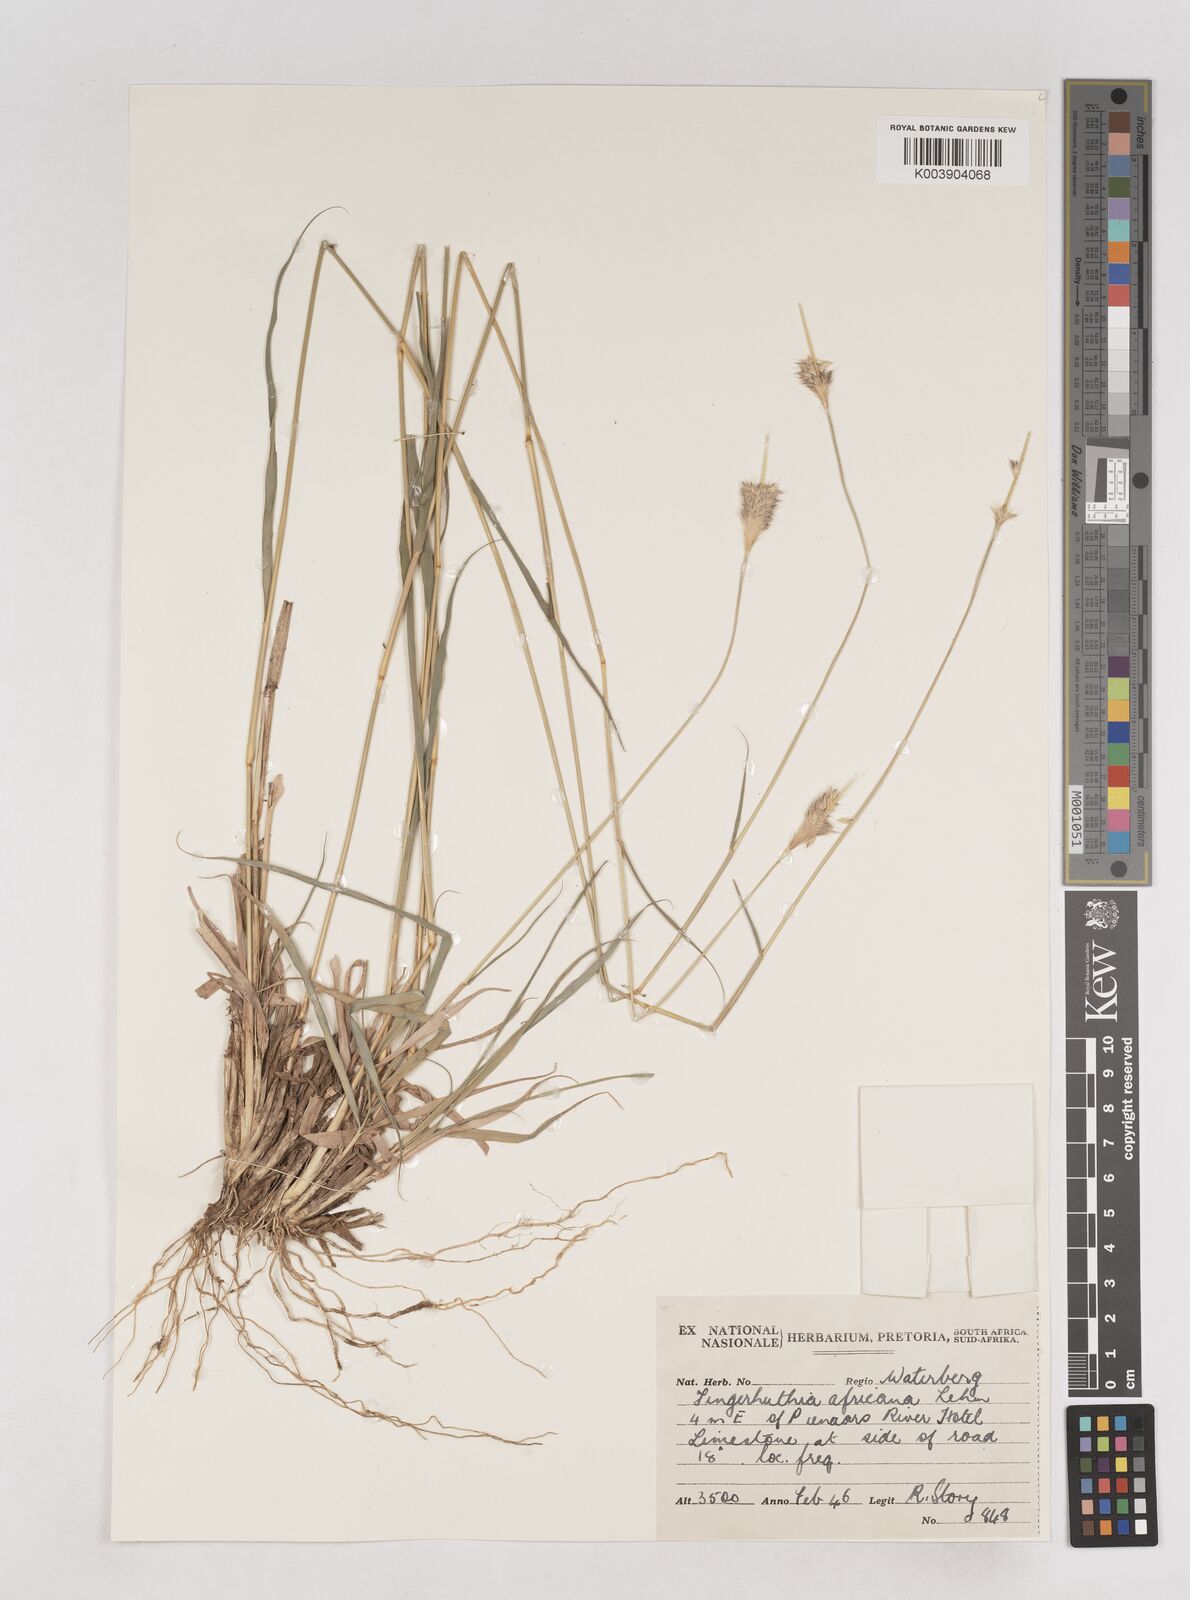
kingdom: Plantae
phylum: Tracheophyta
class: Liliopsida
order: Poales
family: Poaceae
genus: Fingerhuthia
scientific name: Fingerhuthia africana
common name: Zulu fescue
